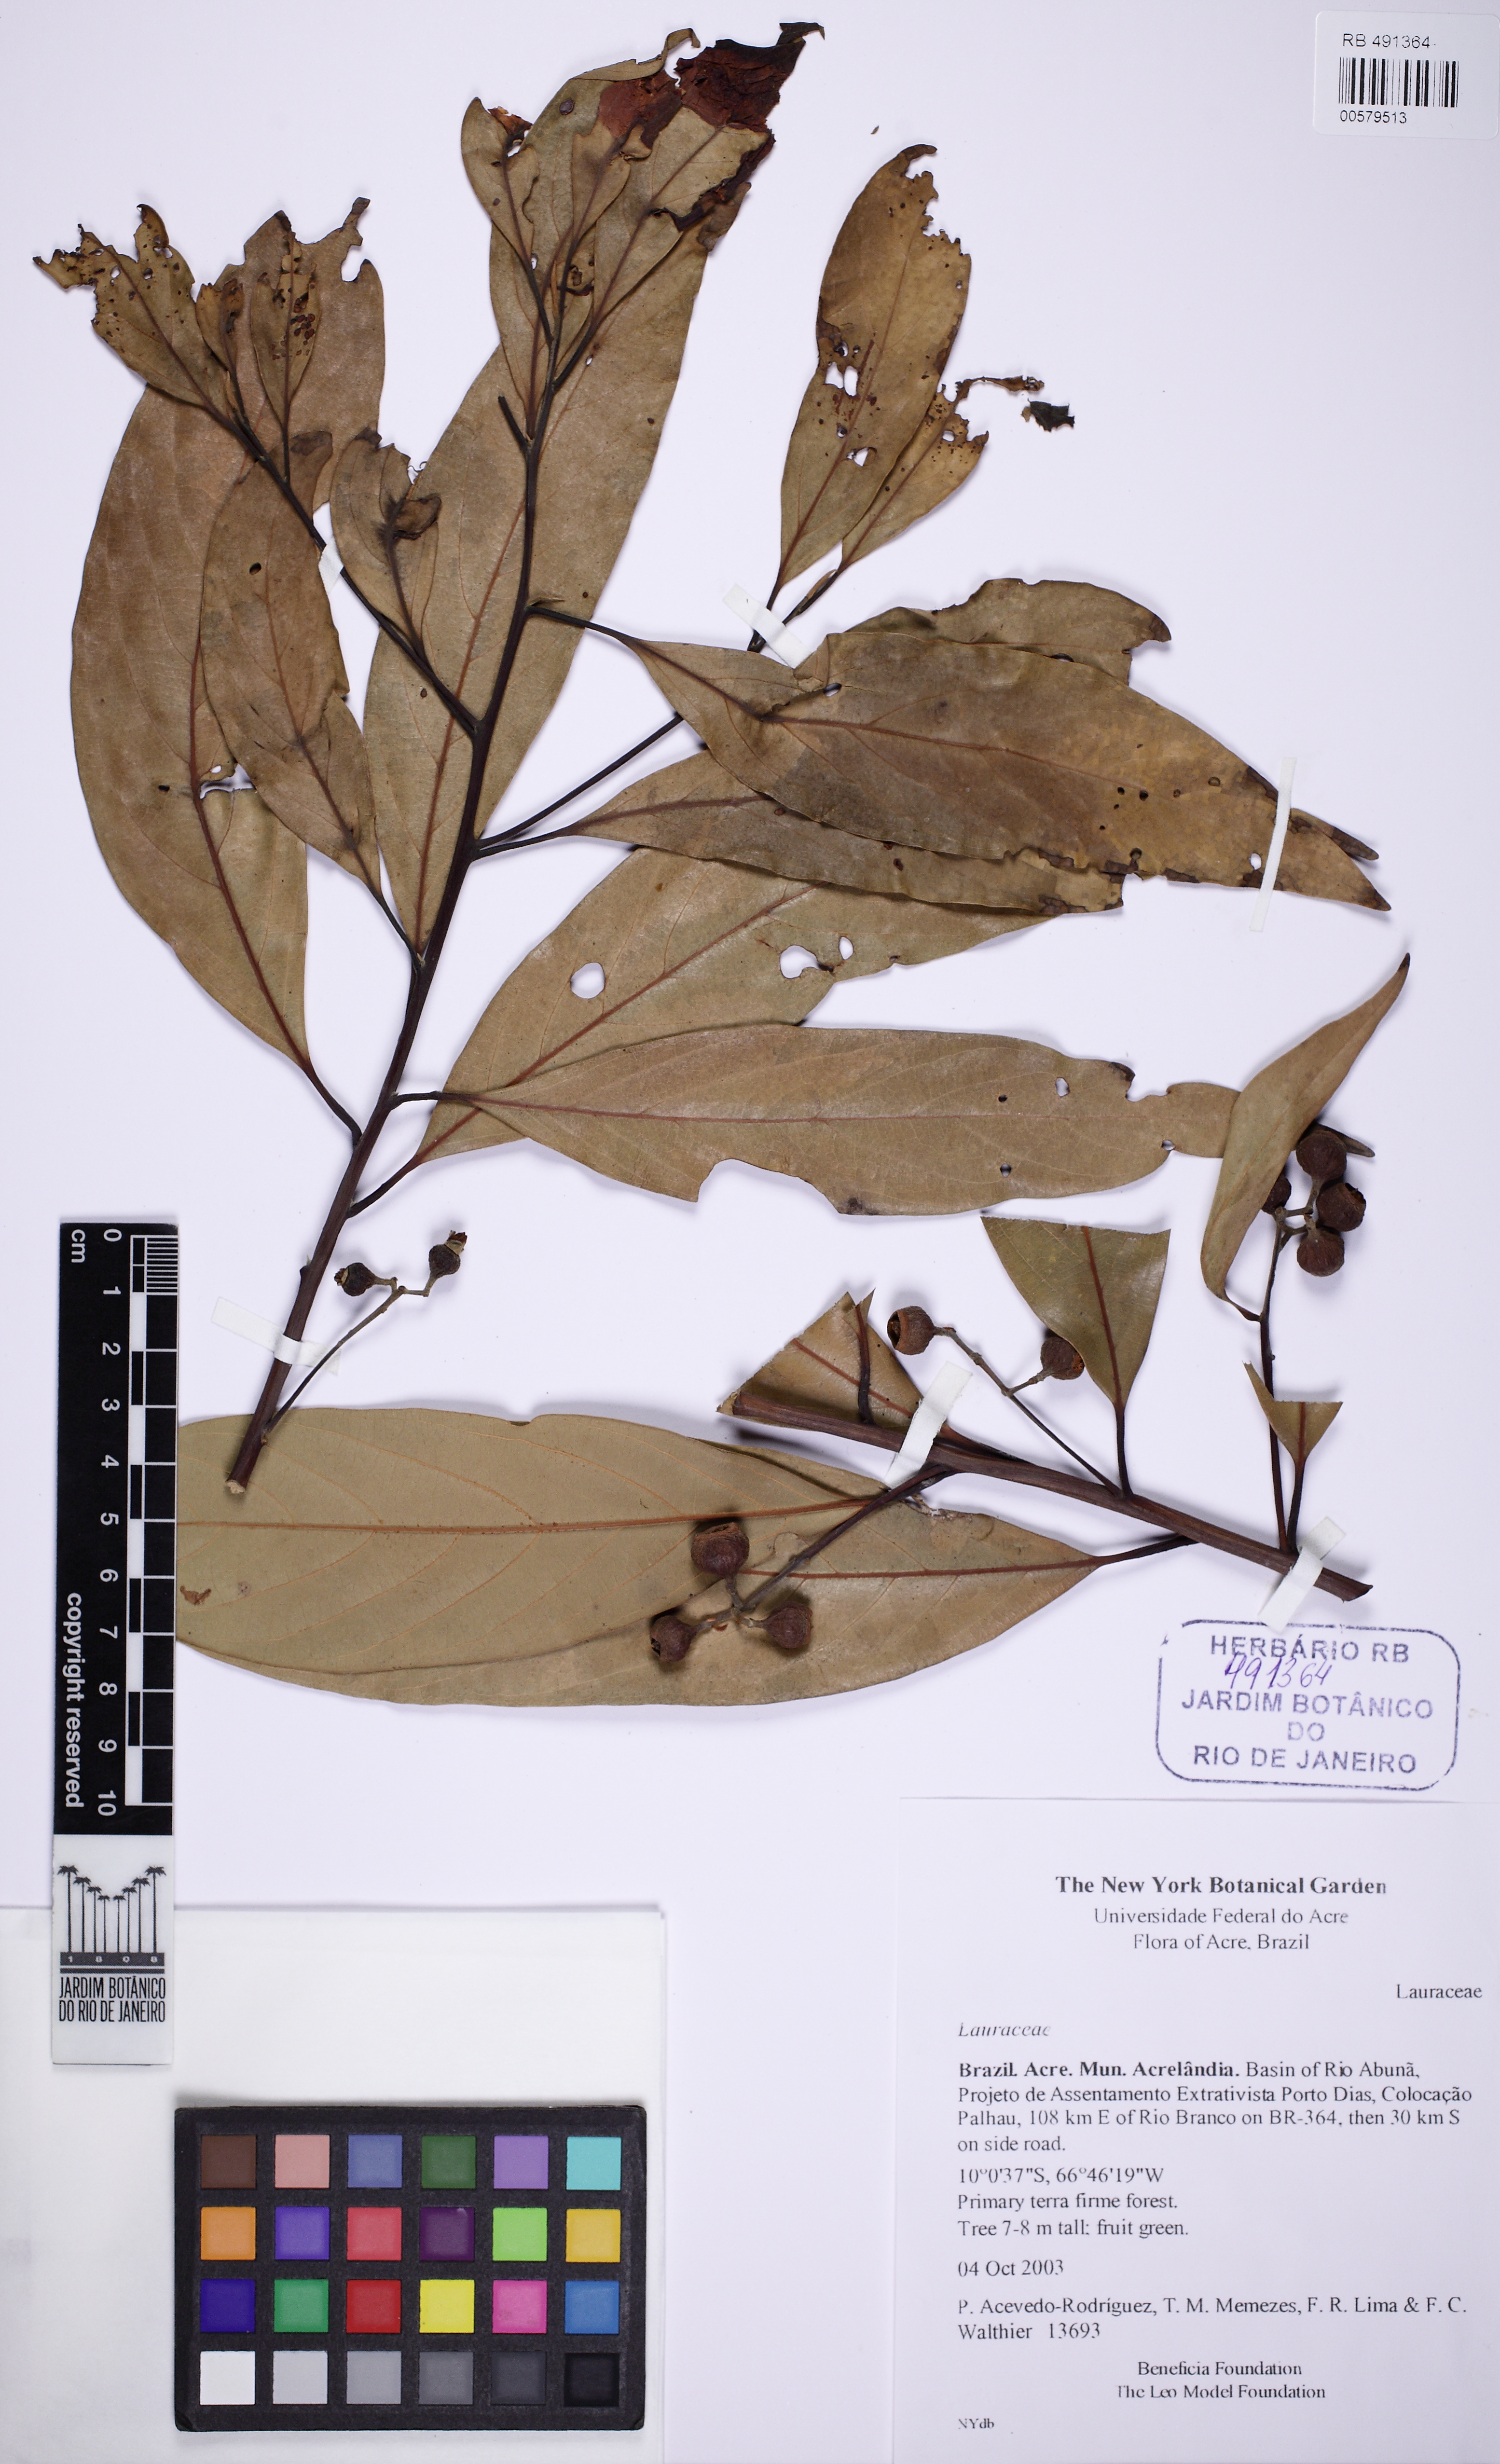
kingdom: Plantae
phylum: Tracheophyta
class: Magnoliopsida
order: Laurales
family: Lauraceae
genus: Nectandra
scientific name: Nectandra
